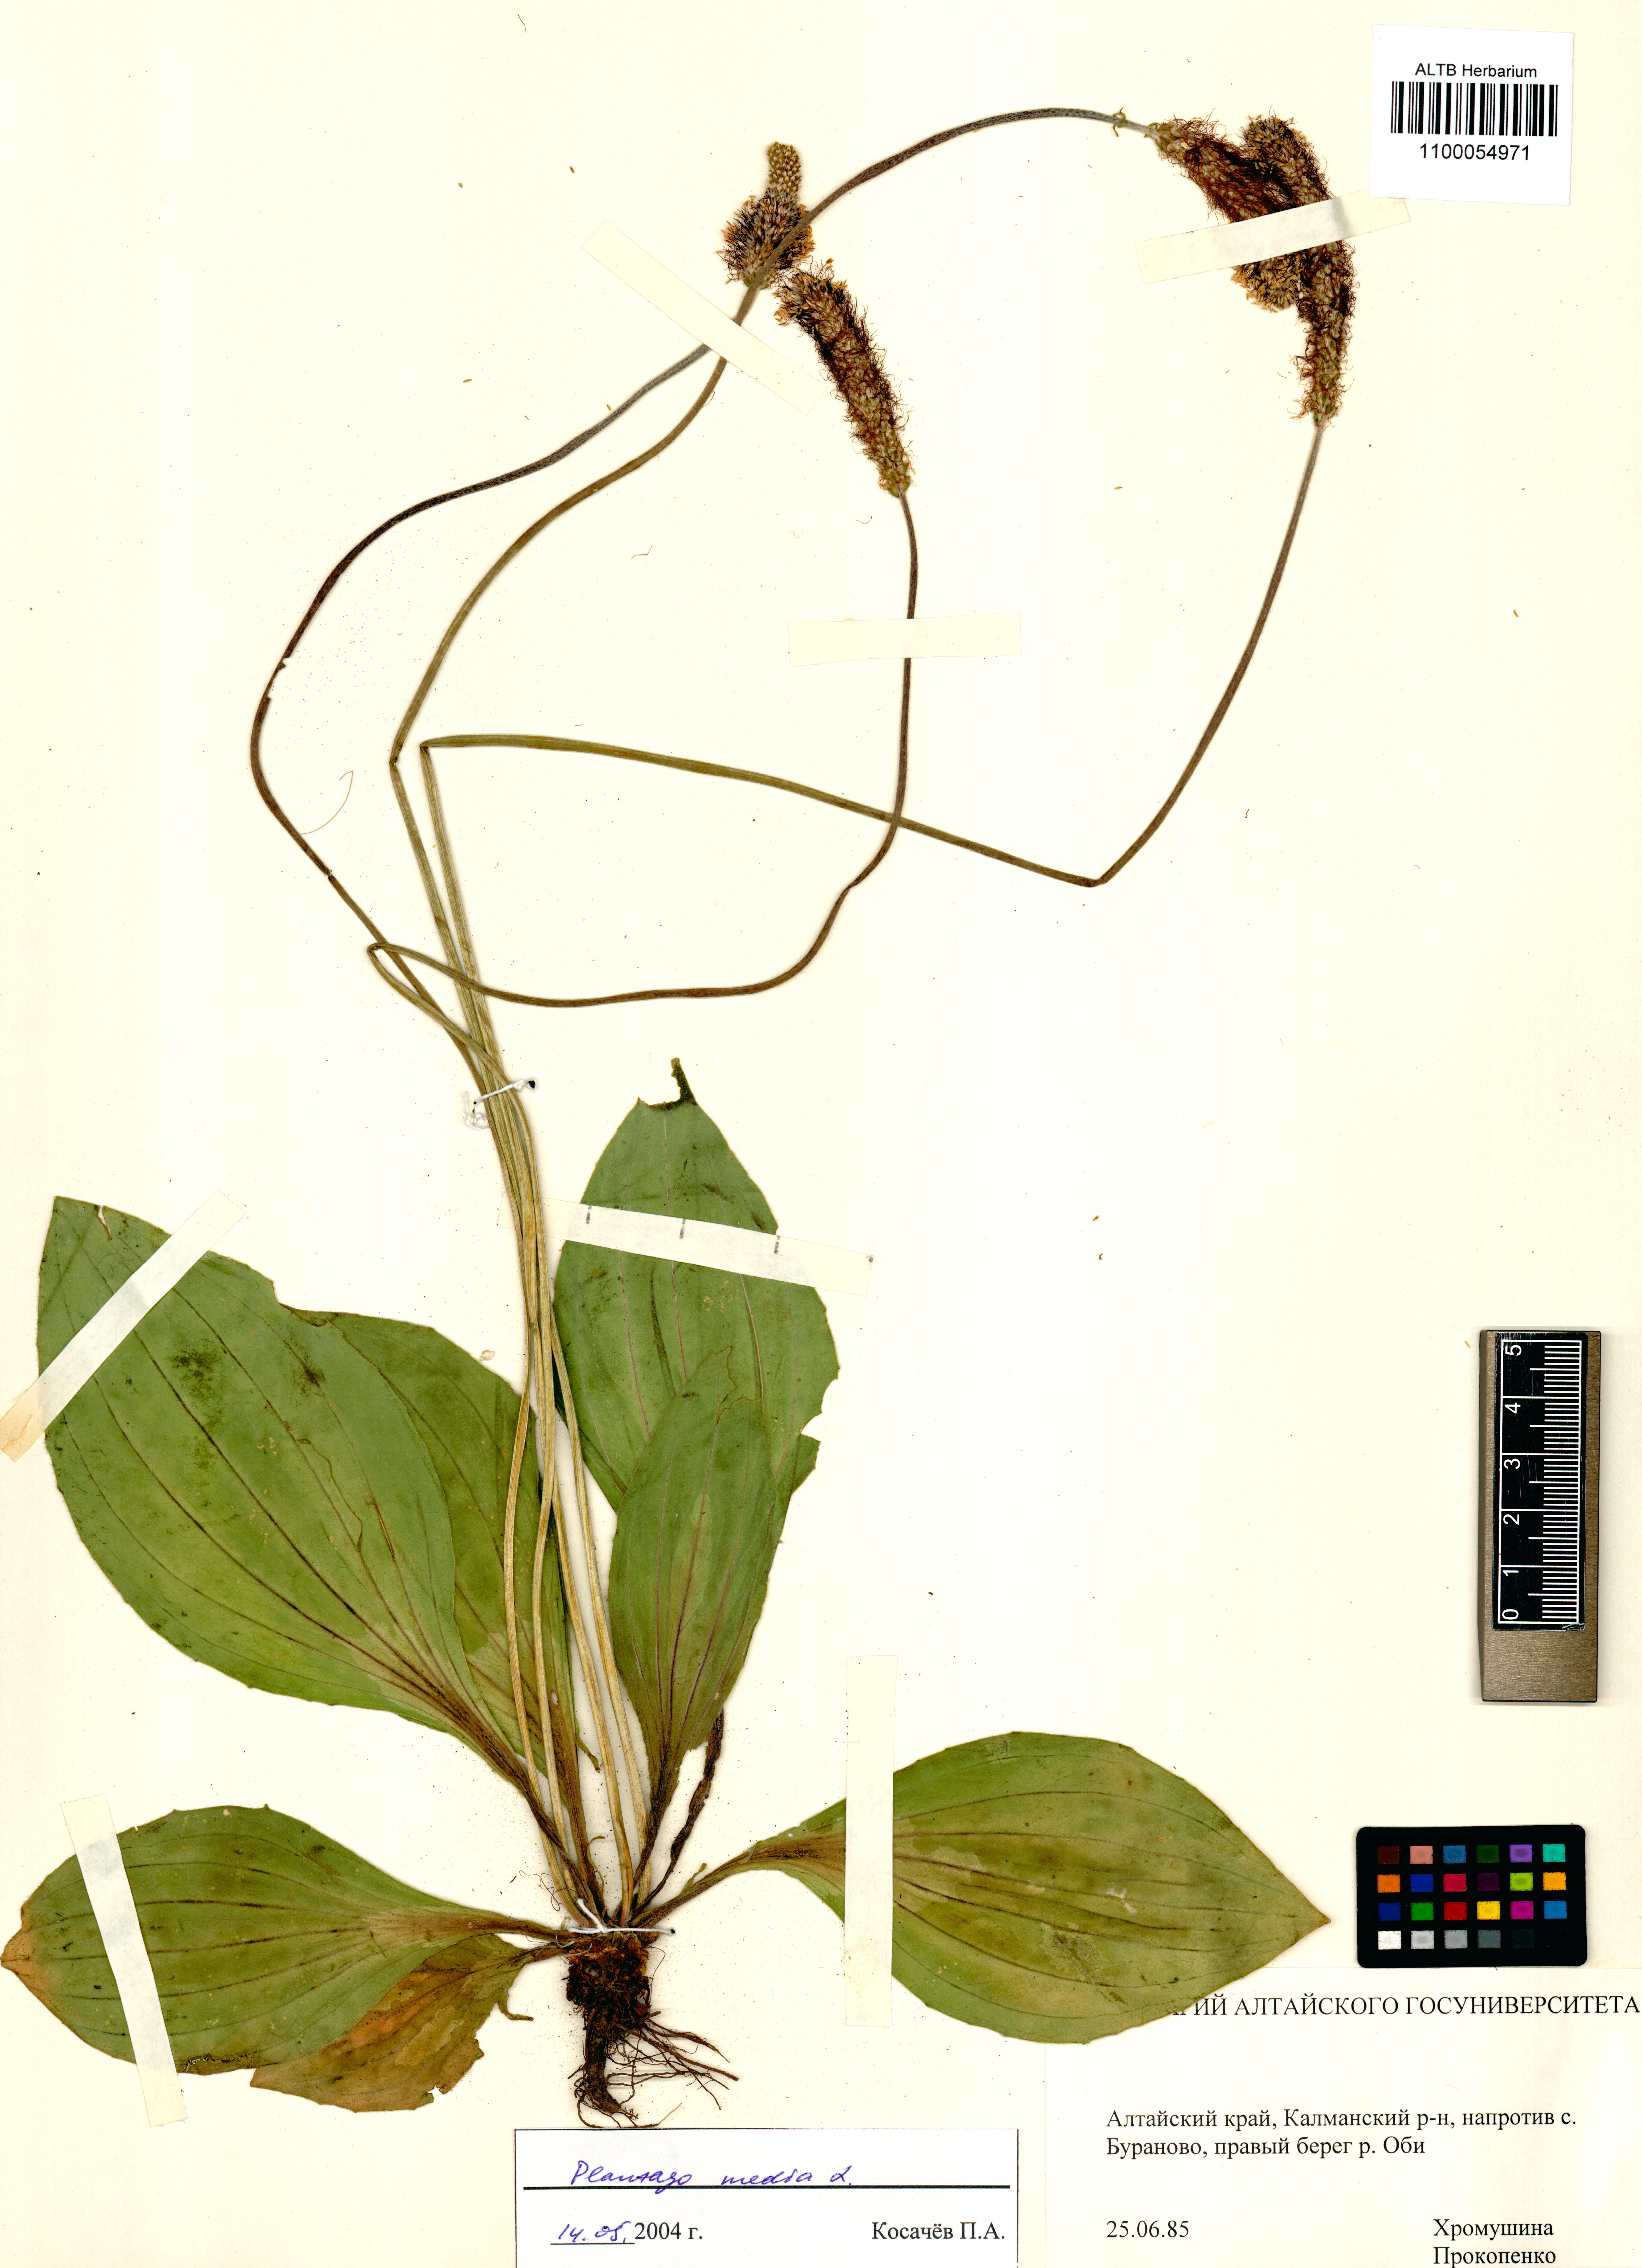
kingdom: Plantae
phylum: Tracheophyta
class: Magnoliopsida
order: Lamiales
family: Plantaginaceae
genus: Plantago
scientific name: Plantago media
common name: Hoary plantain
